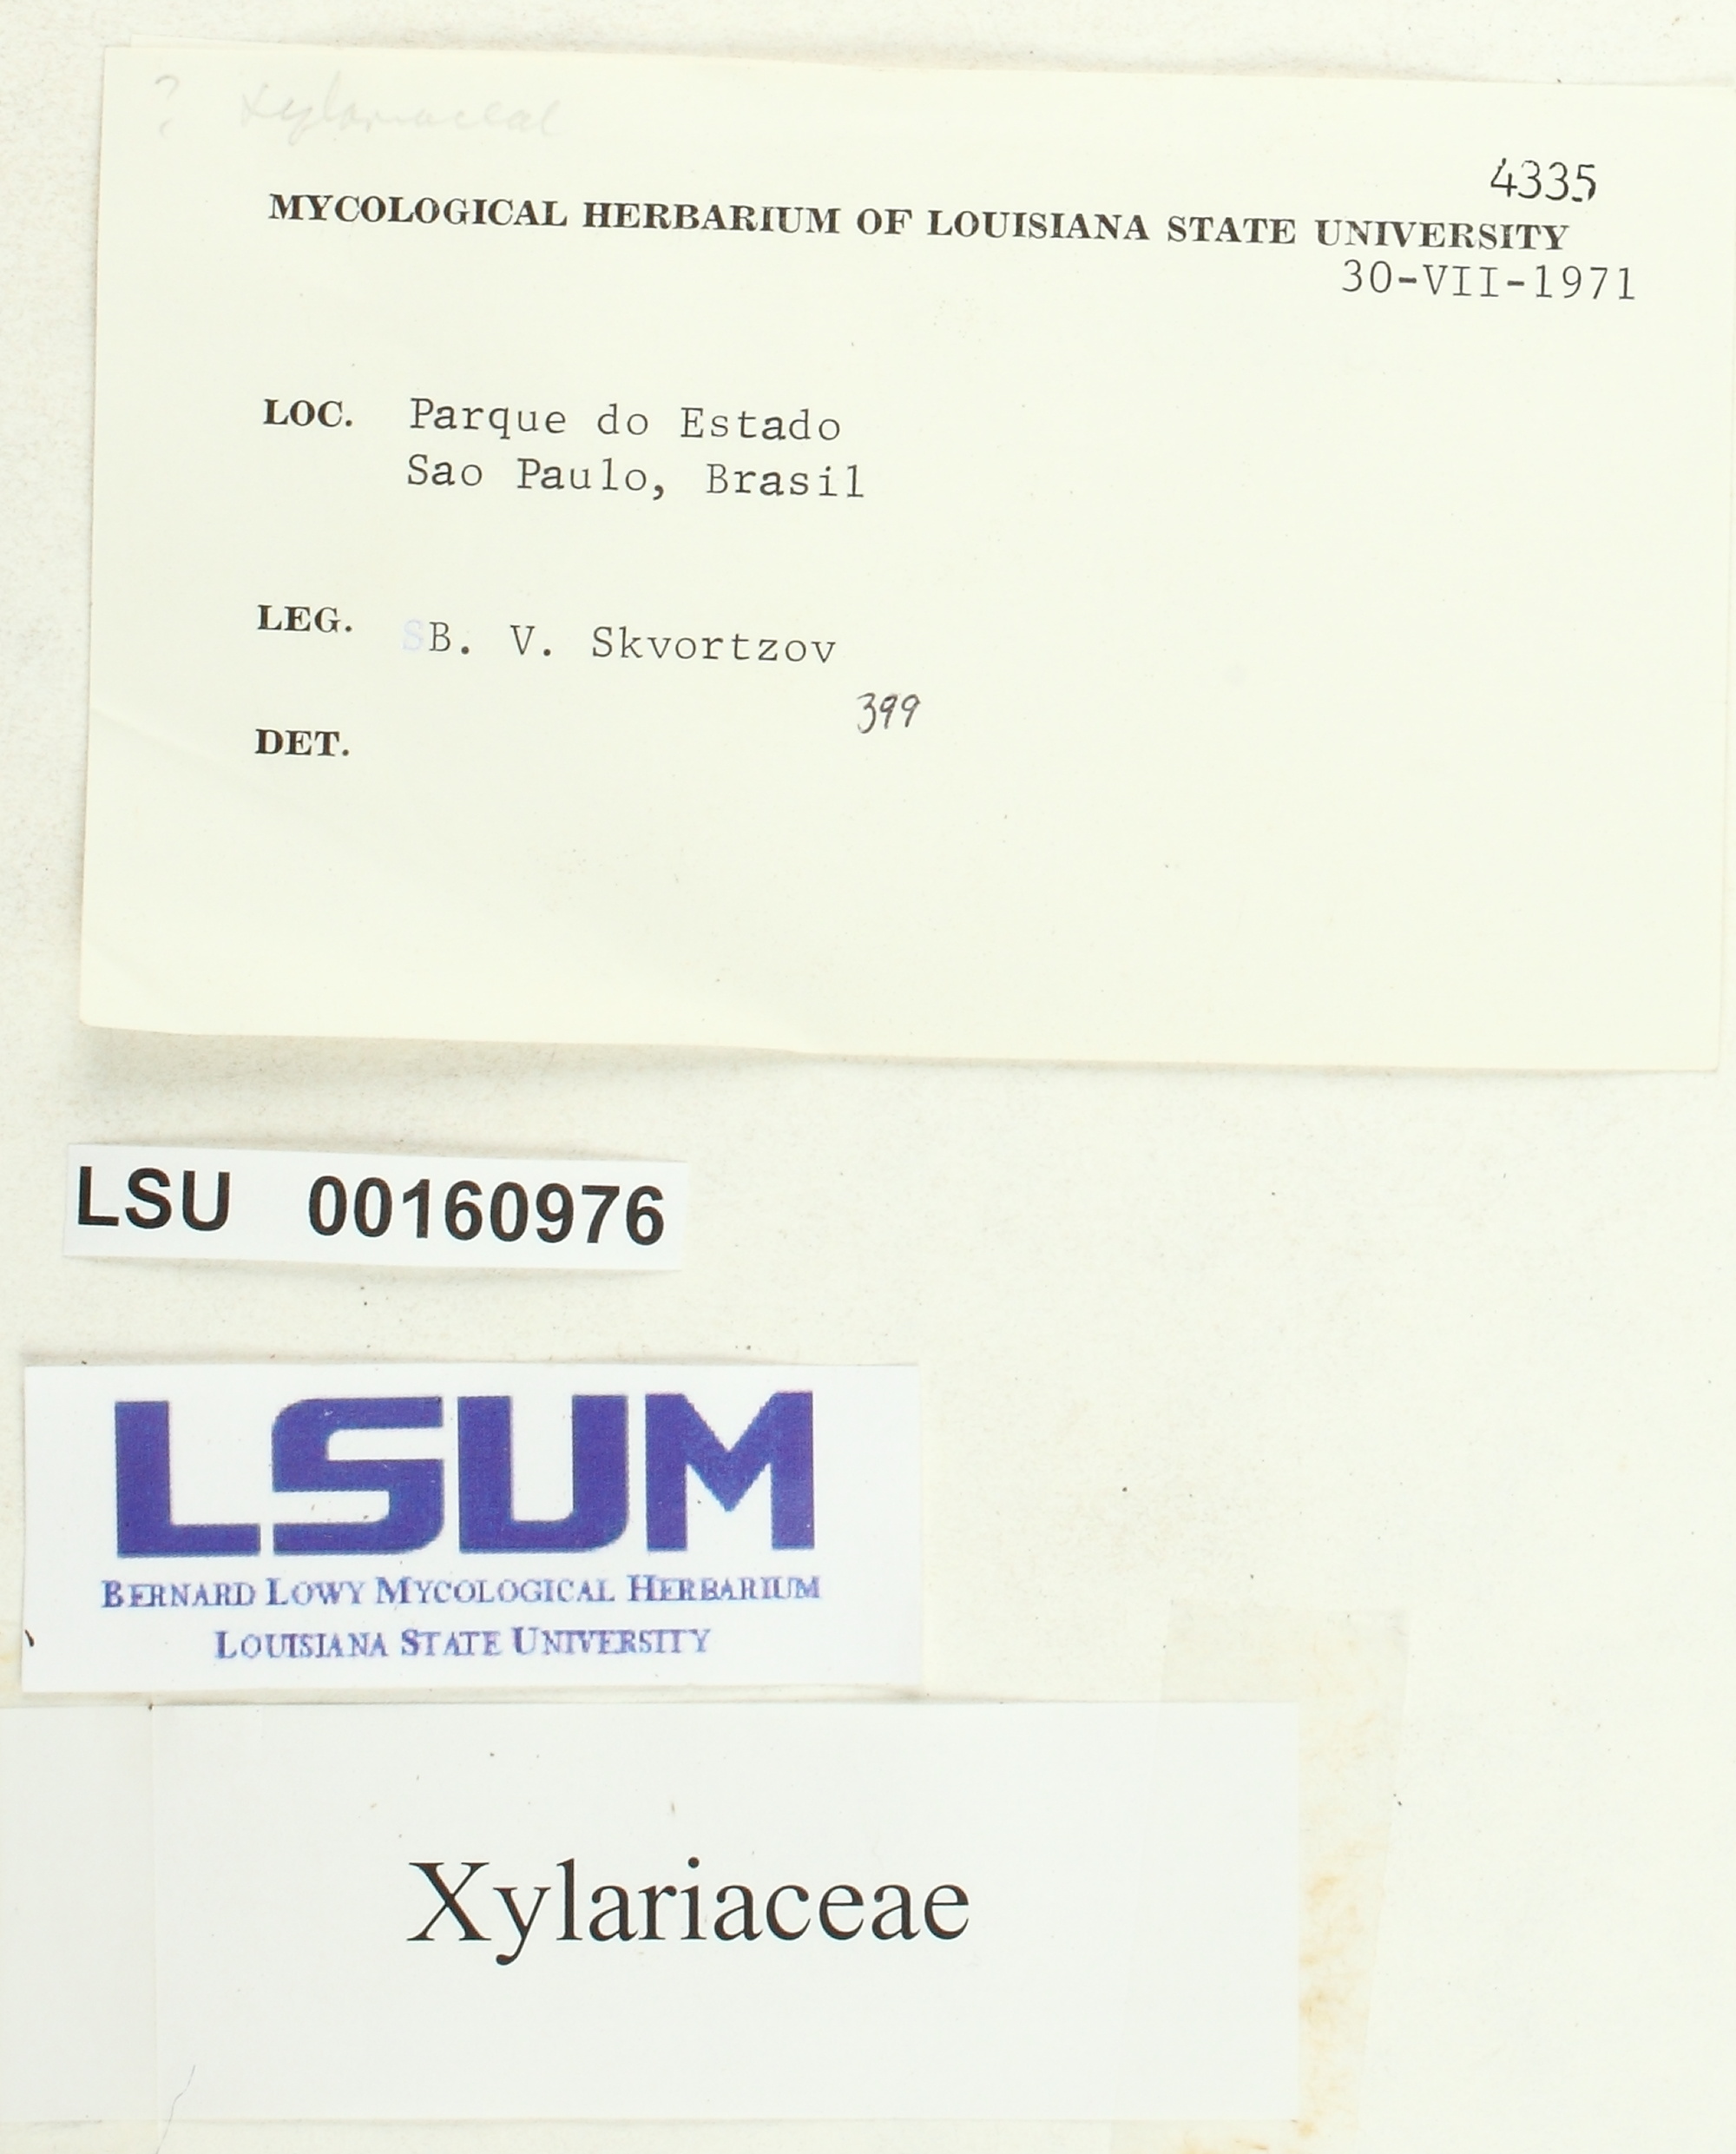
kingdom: Fungi
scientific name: Fungi
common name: Fungi
